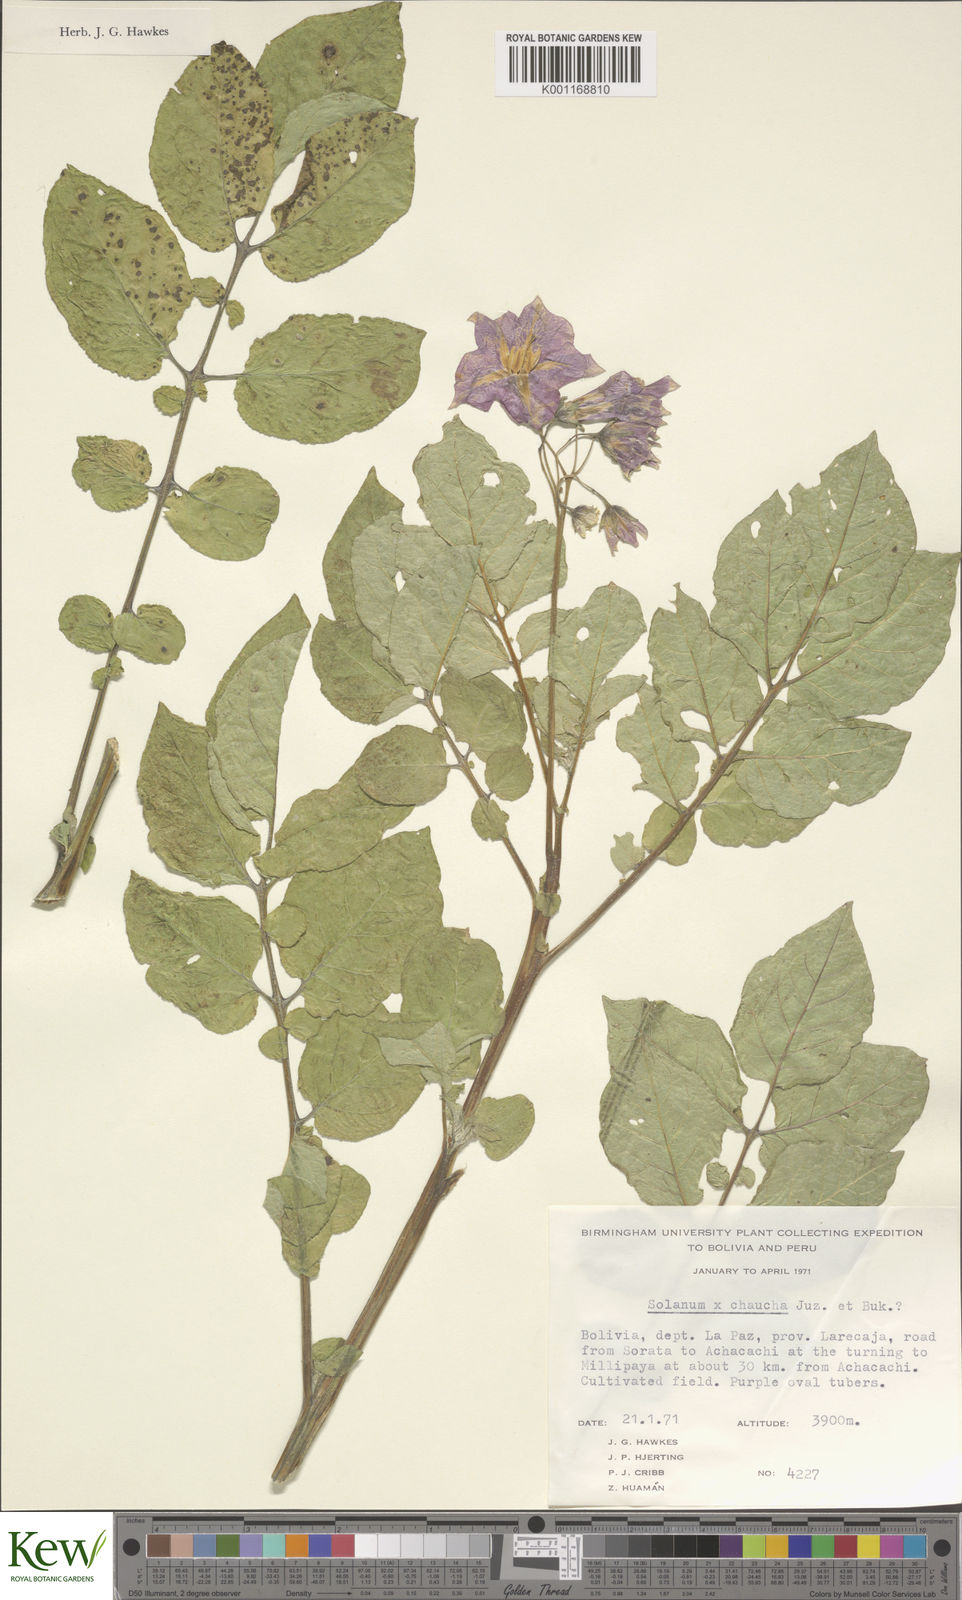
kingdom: Plantae
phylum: Tracheophyta
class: Magnoliopsida
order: Solanales
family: Solanaceae
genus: Solanum
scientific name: Solanum chaucha
